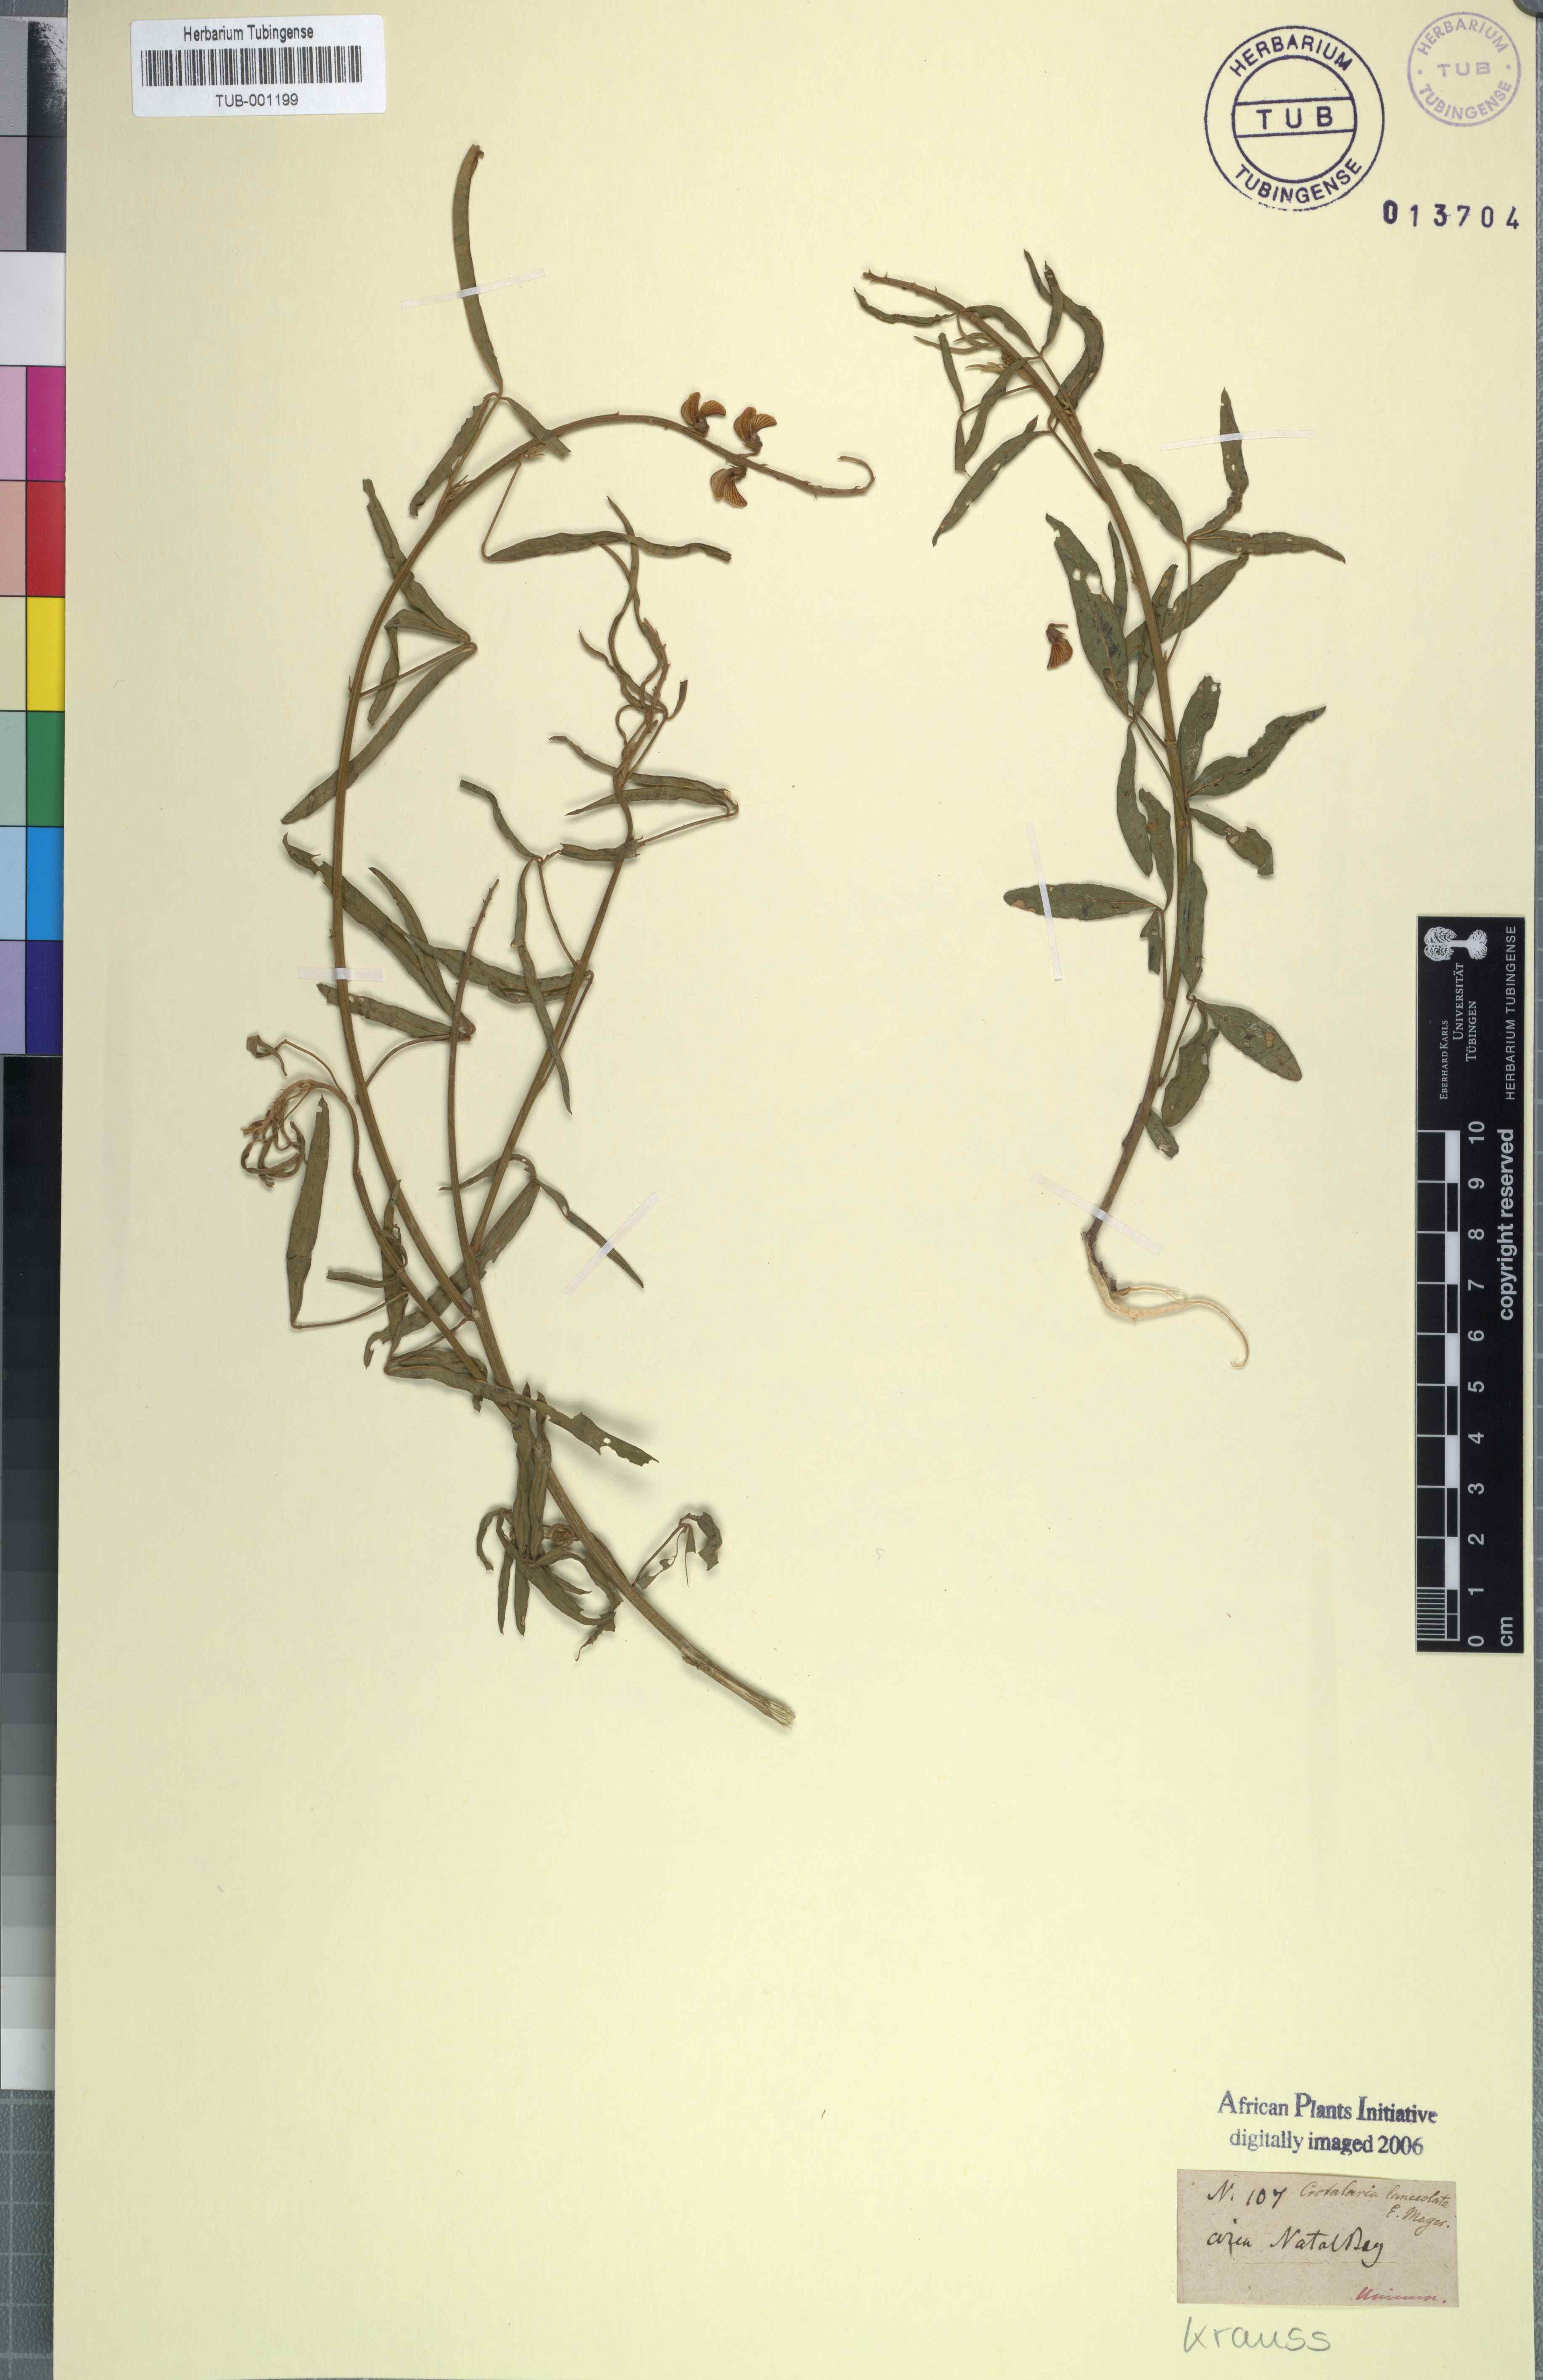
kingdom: Plantae
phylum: Tracheophyta
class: Magnoliopsida
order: Fabales
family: Fabaceae
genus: Crotalaria
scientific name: Crotalaria lanceolata
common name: Lanceleaf rattlebox
